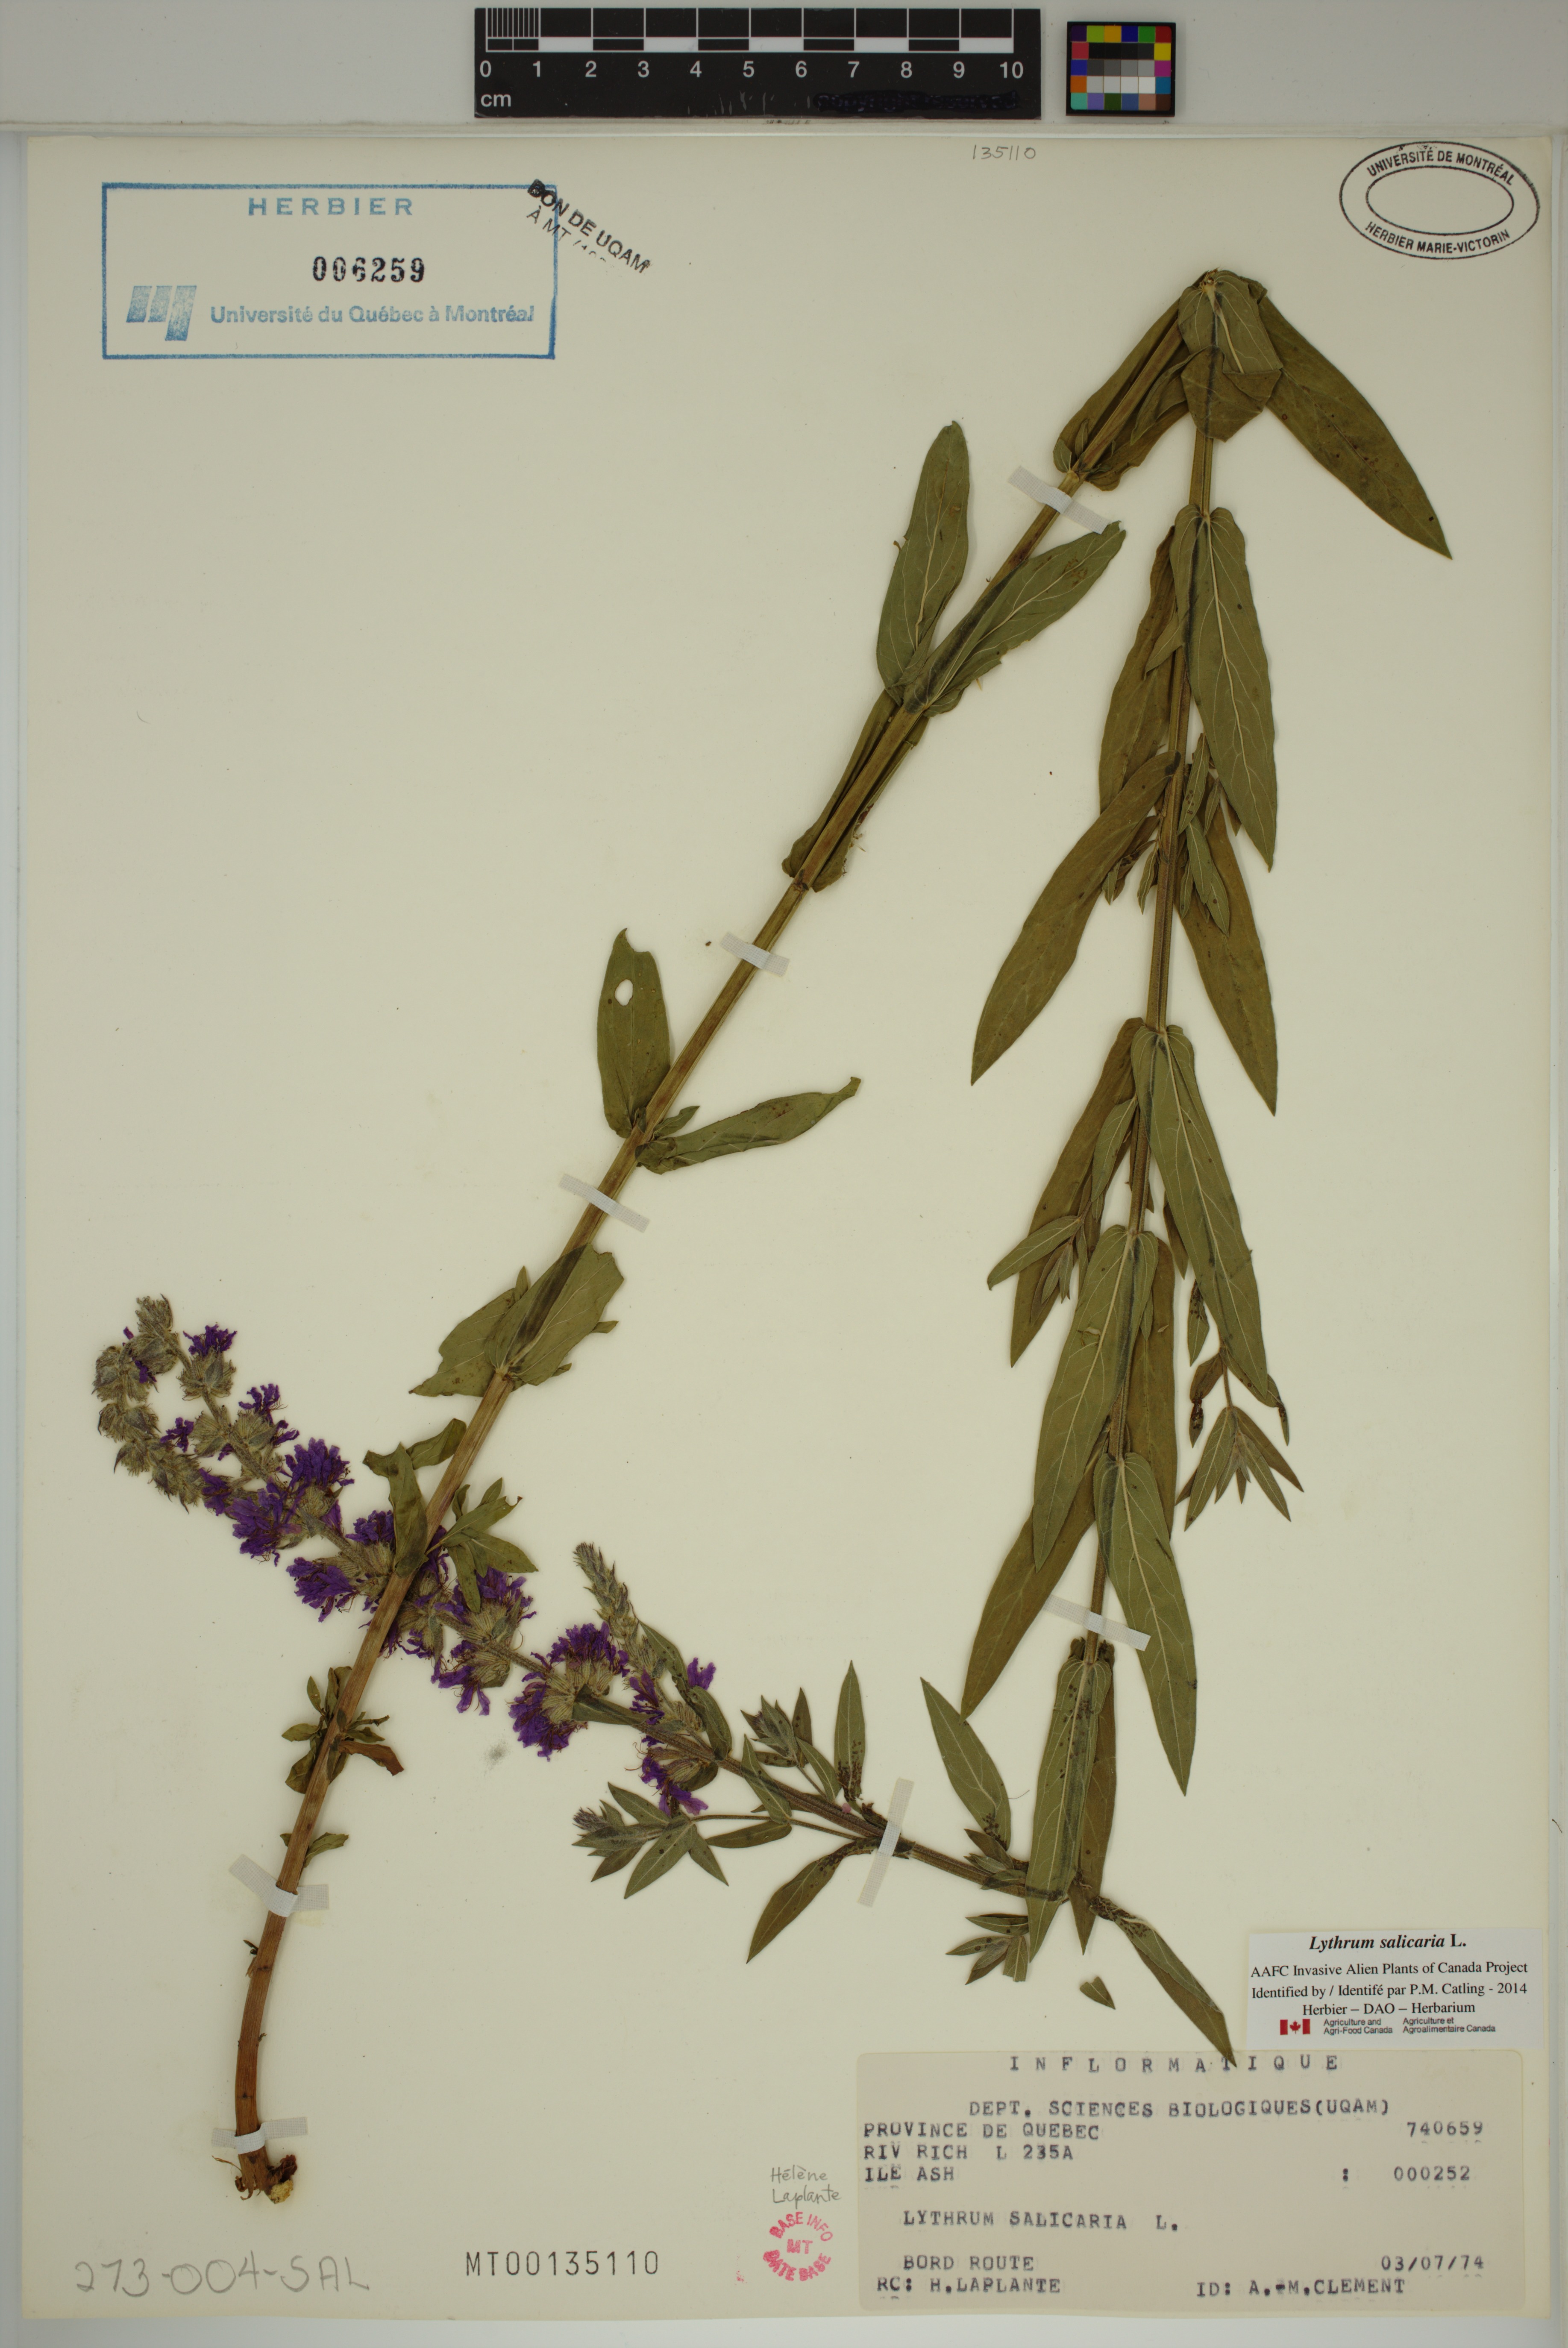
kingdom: Plantae
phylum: Tracheophyta
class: Magnoliopsida
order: Myrtales
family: Lythraceae
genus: Lythrum
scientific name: Lythrum salicaria
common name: Purple loosestrife
